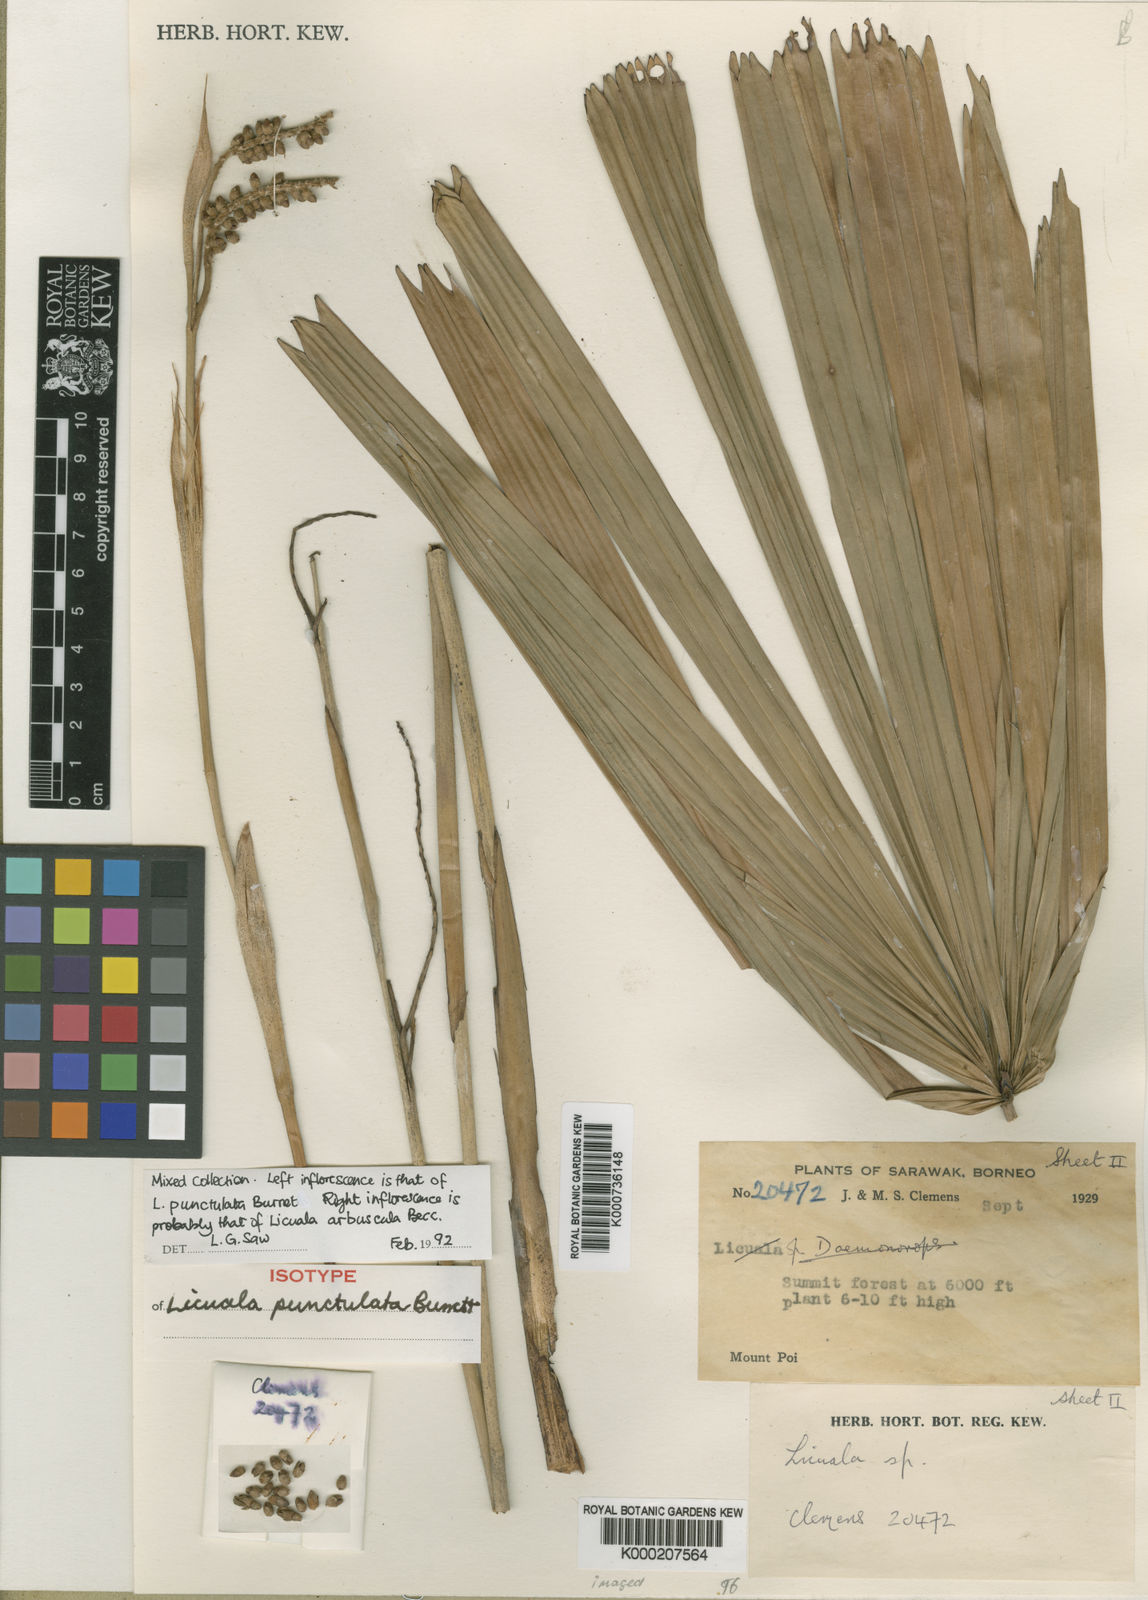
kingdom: Plantae
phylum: Tracheophyta
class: Liliopsida
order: Arecales
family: Arecaceae
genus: Licuala
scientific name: Licuala punctulata
